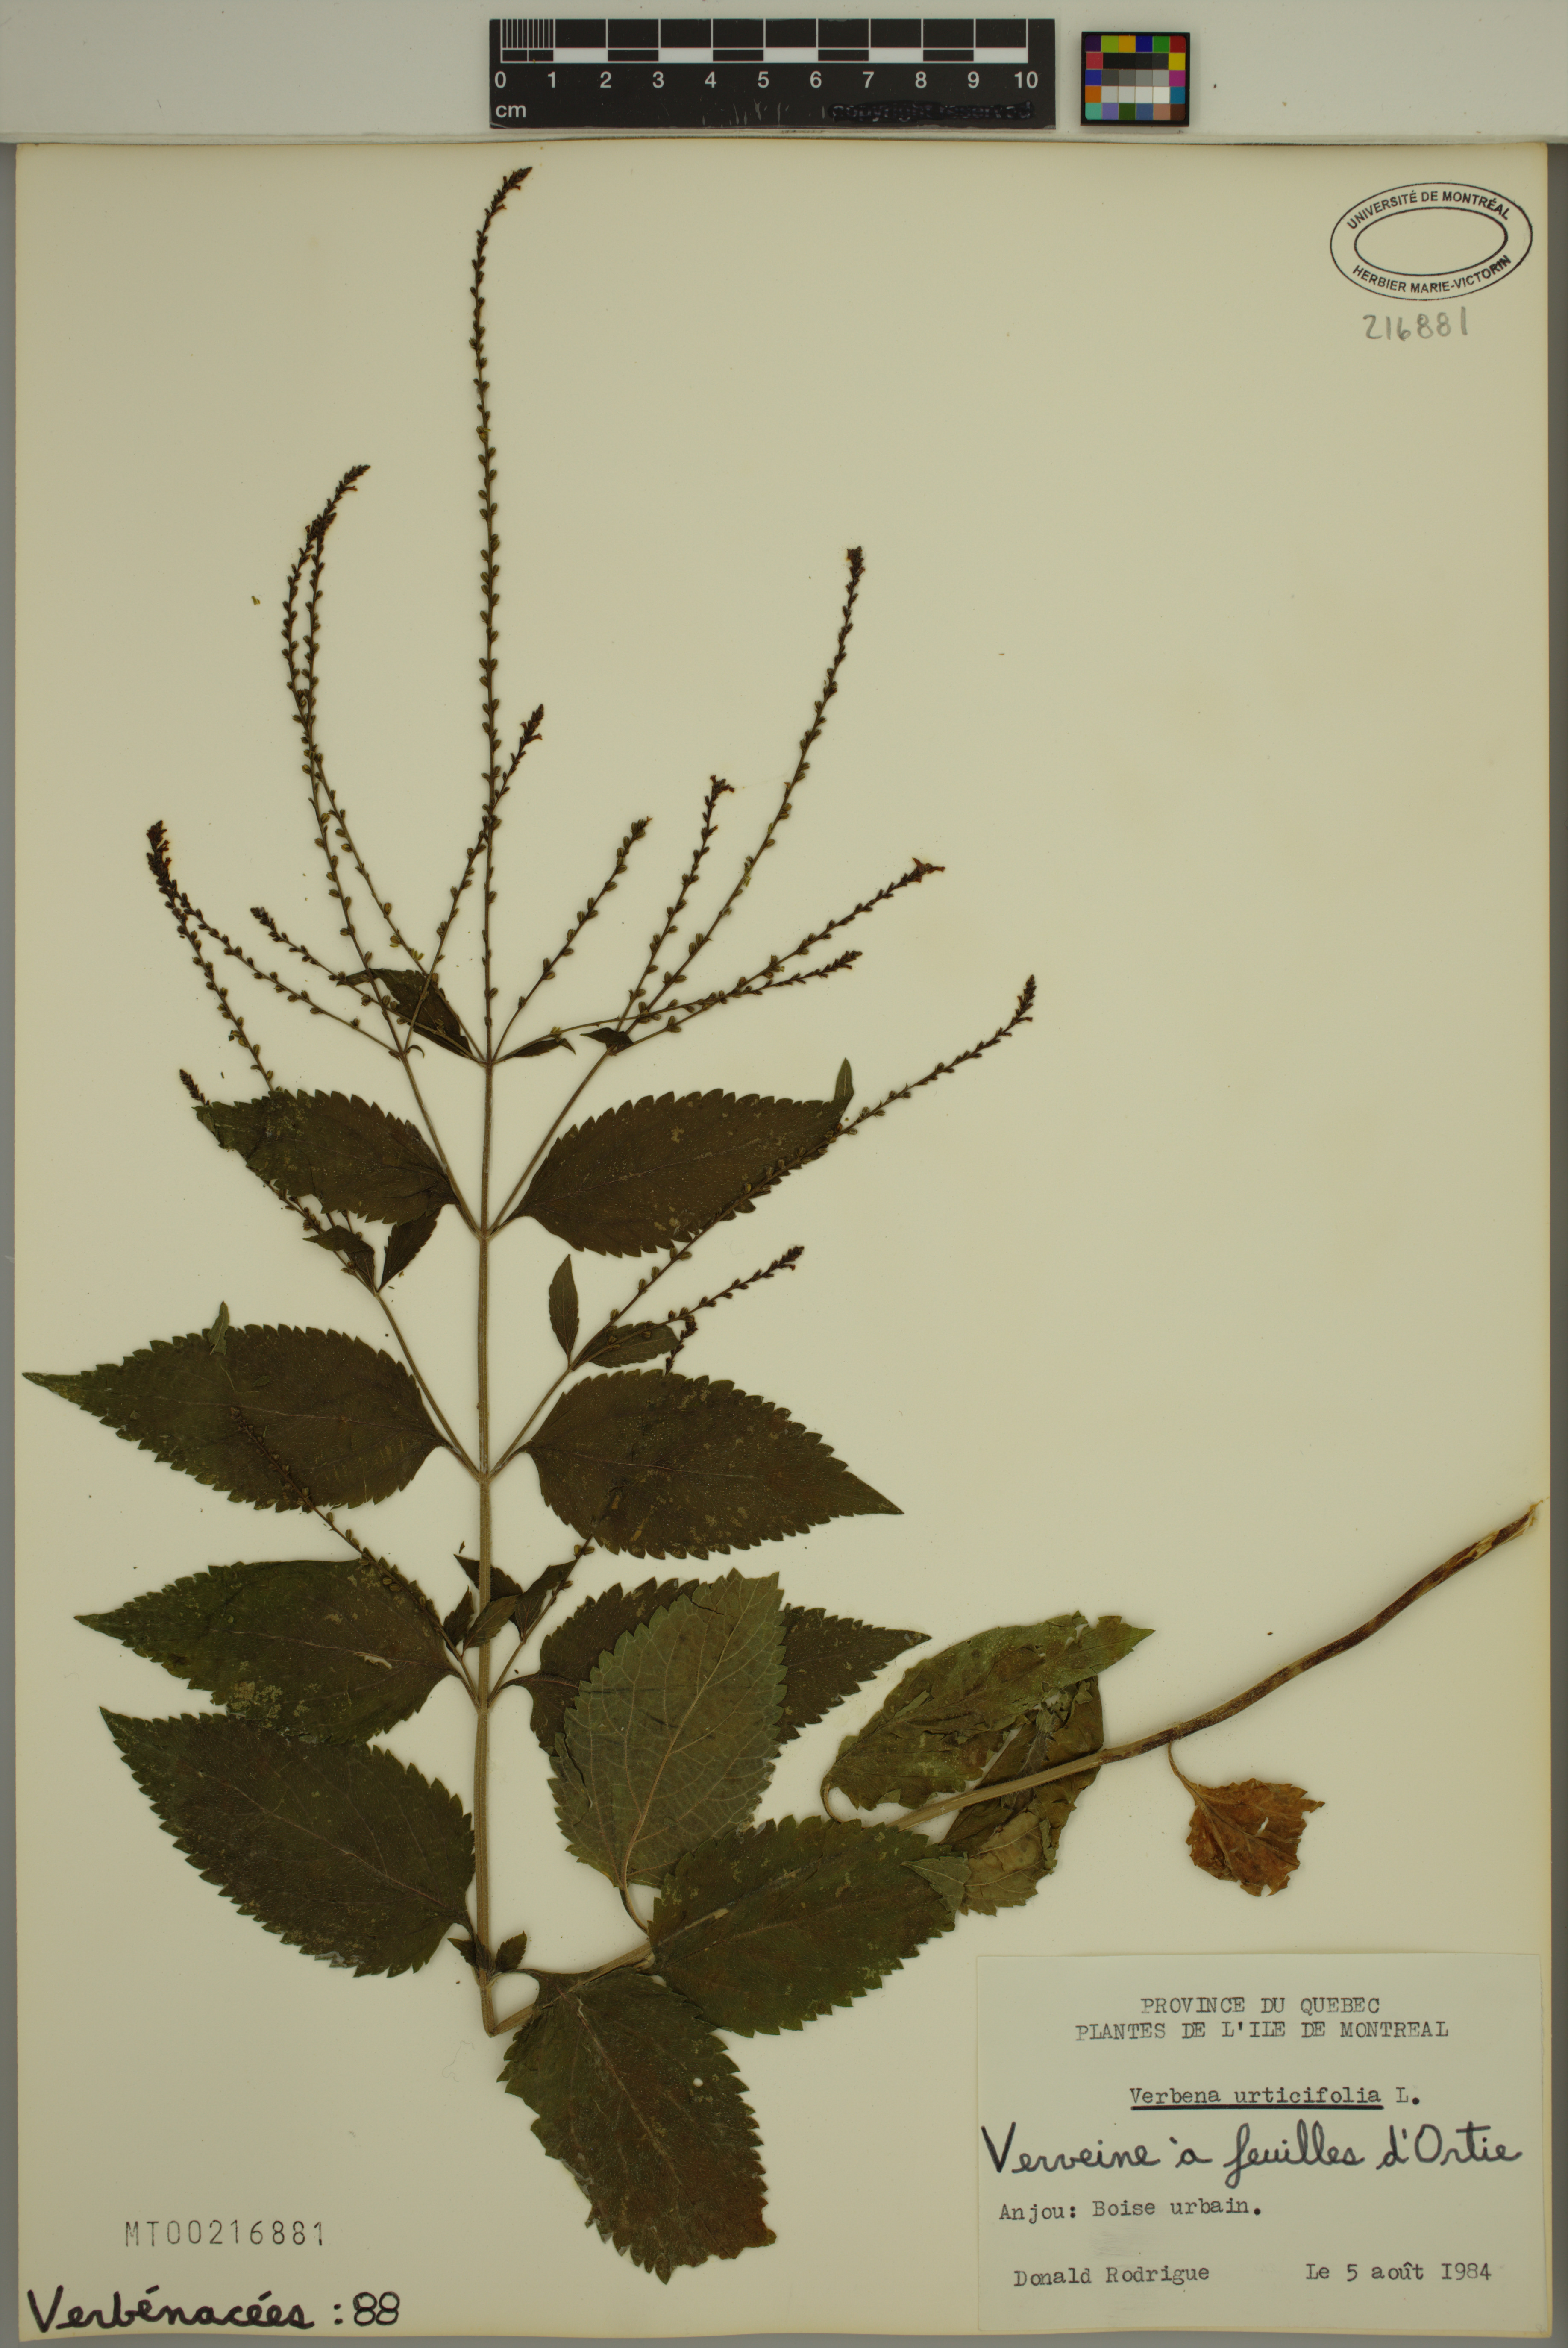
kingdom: Plantae
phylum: Tracheophyta
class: Magnoliopsida
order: Lamiales
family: Verbenaceae
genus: Verbena
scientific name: Verbena urticifolia
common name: Nettle-leaved vervain
